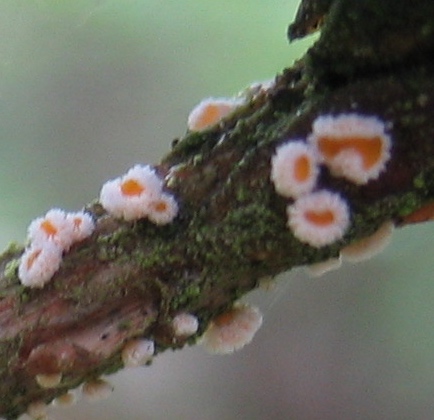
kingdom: Fungi
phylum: Ascomycota
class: Leotiomycetes
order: Helotiales
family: Lachnaceae
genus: Capitotricha
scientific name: Capitotricha bicolor
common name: prægtig frynseskive
